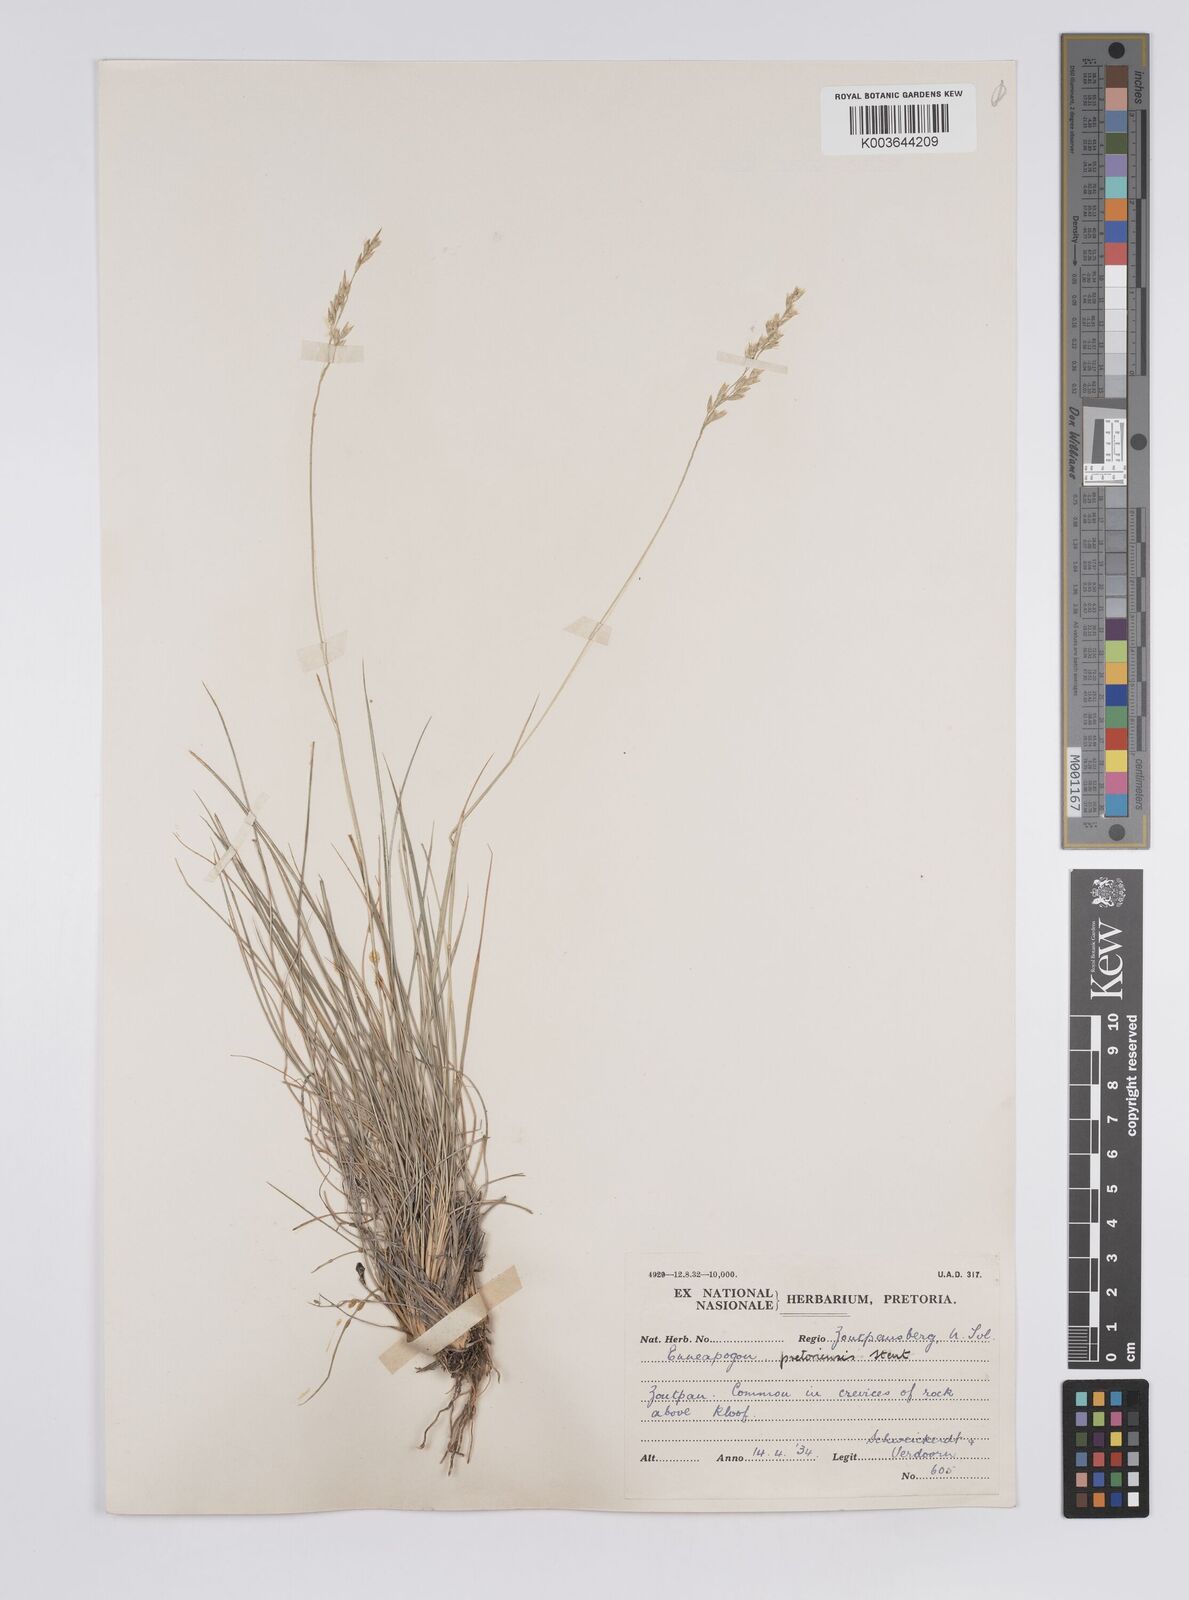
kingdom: Plantae
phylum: Tracheophyta
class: Liliopsida
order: Poales
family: Poaceae
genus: Enneapogon
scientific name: Enneapogon pretoriensis
